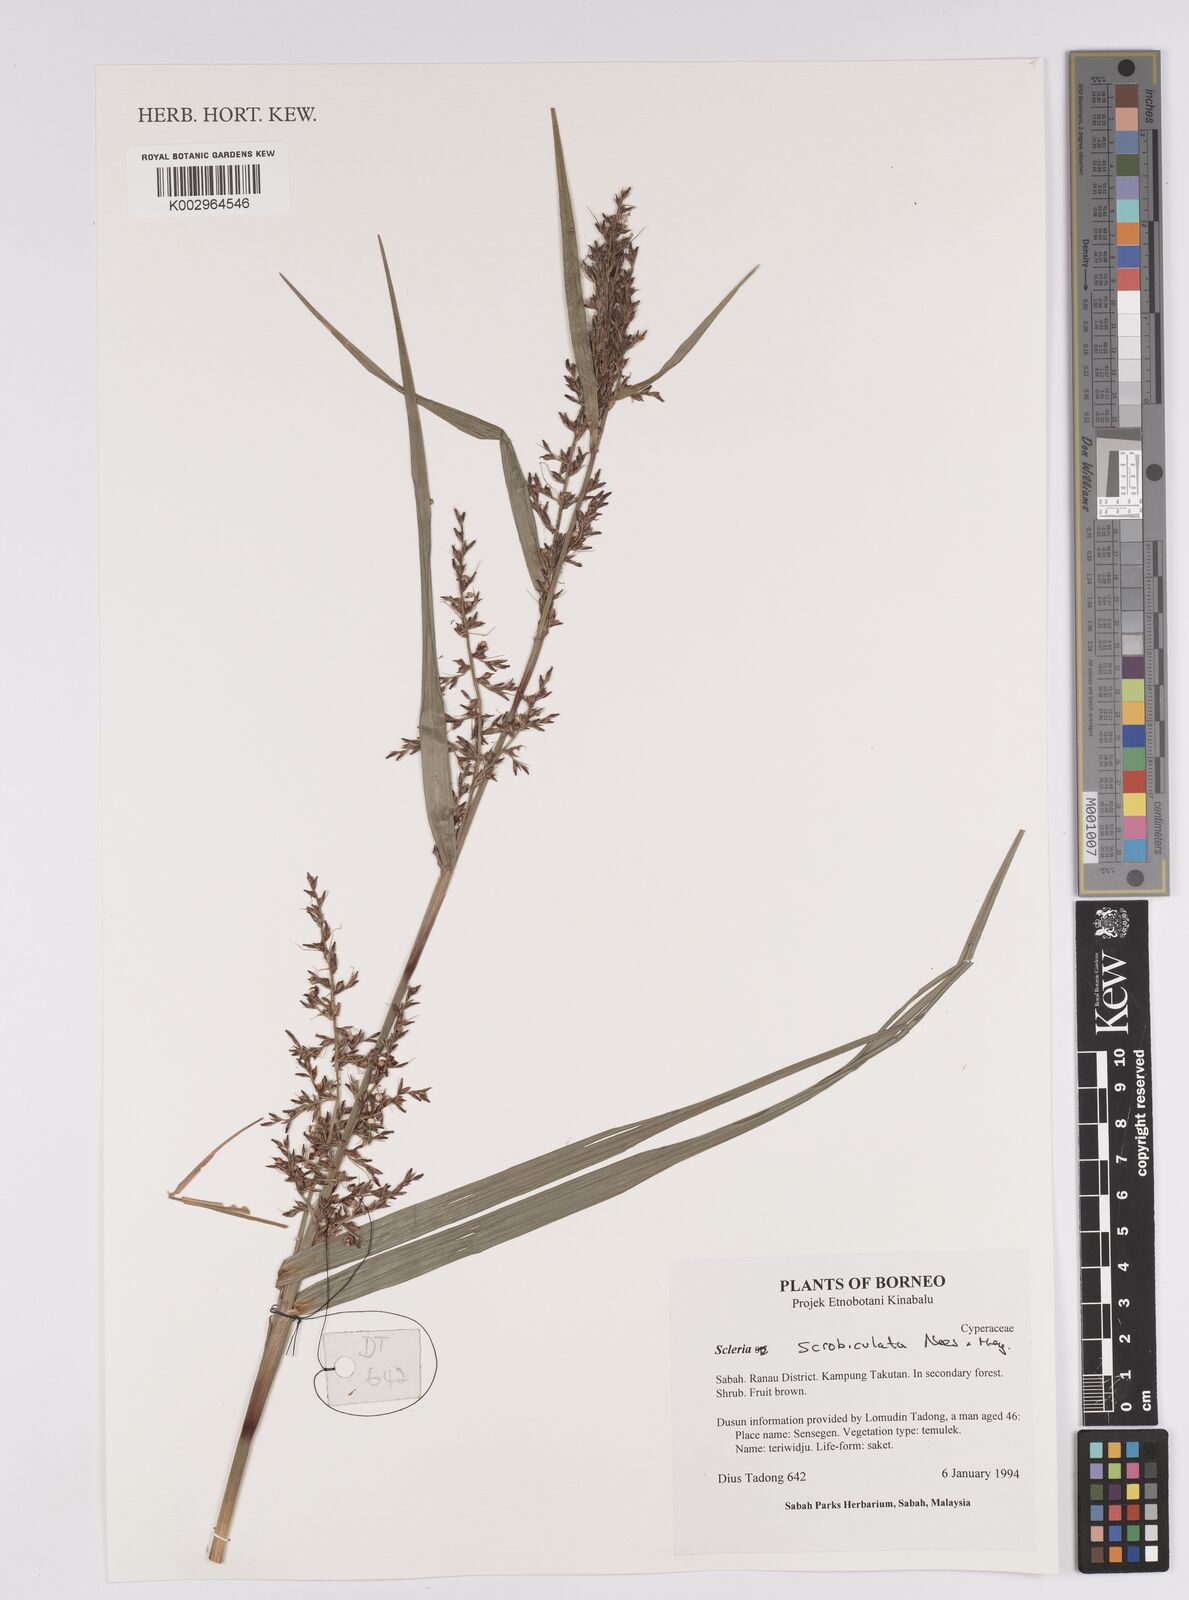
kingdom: Plantae
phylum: Tracheophyta
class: Liliopsida
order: Poales
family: Cyperaceae
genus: Scleria
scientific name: Scleria scrobiculata
